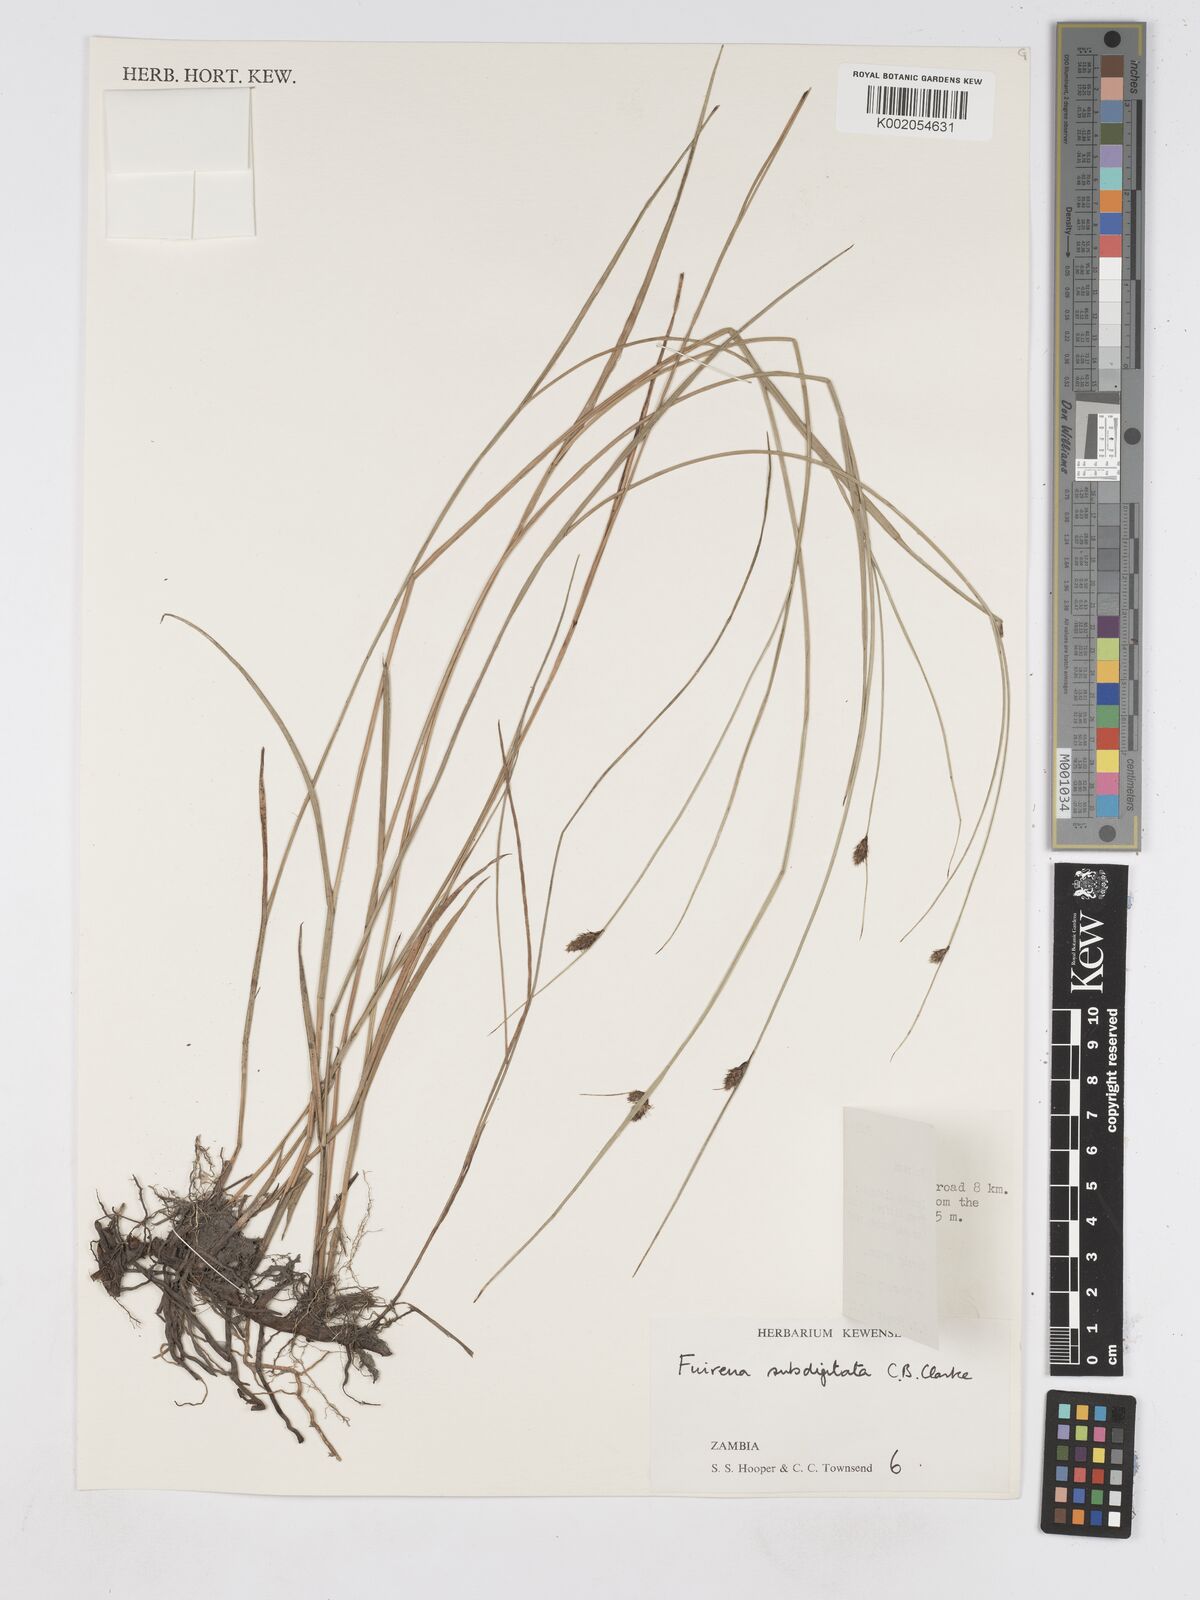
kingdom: Plantae
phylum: Tracheophyta
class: Liliopsida
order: Poales
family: Cyperaceae
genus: Fuirena
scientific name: Fuirena coerulescens
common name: Blue umbrella-sedge
